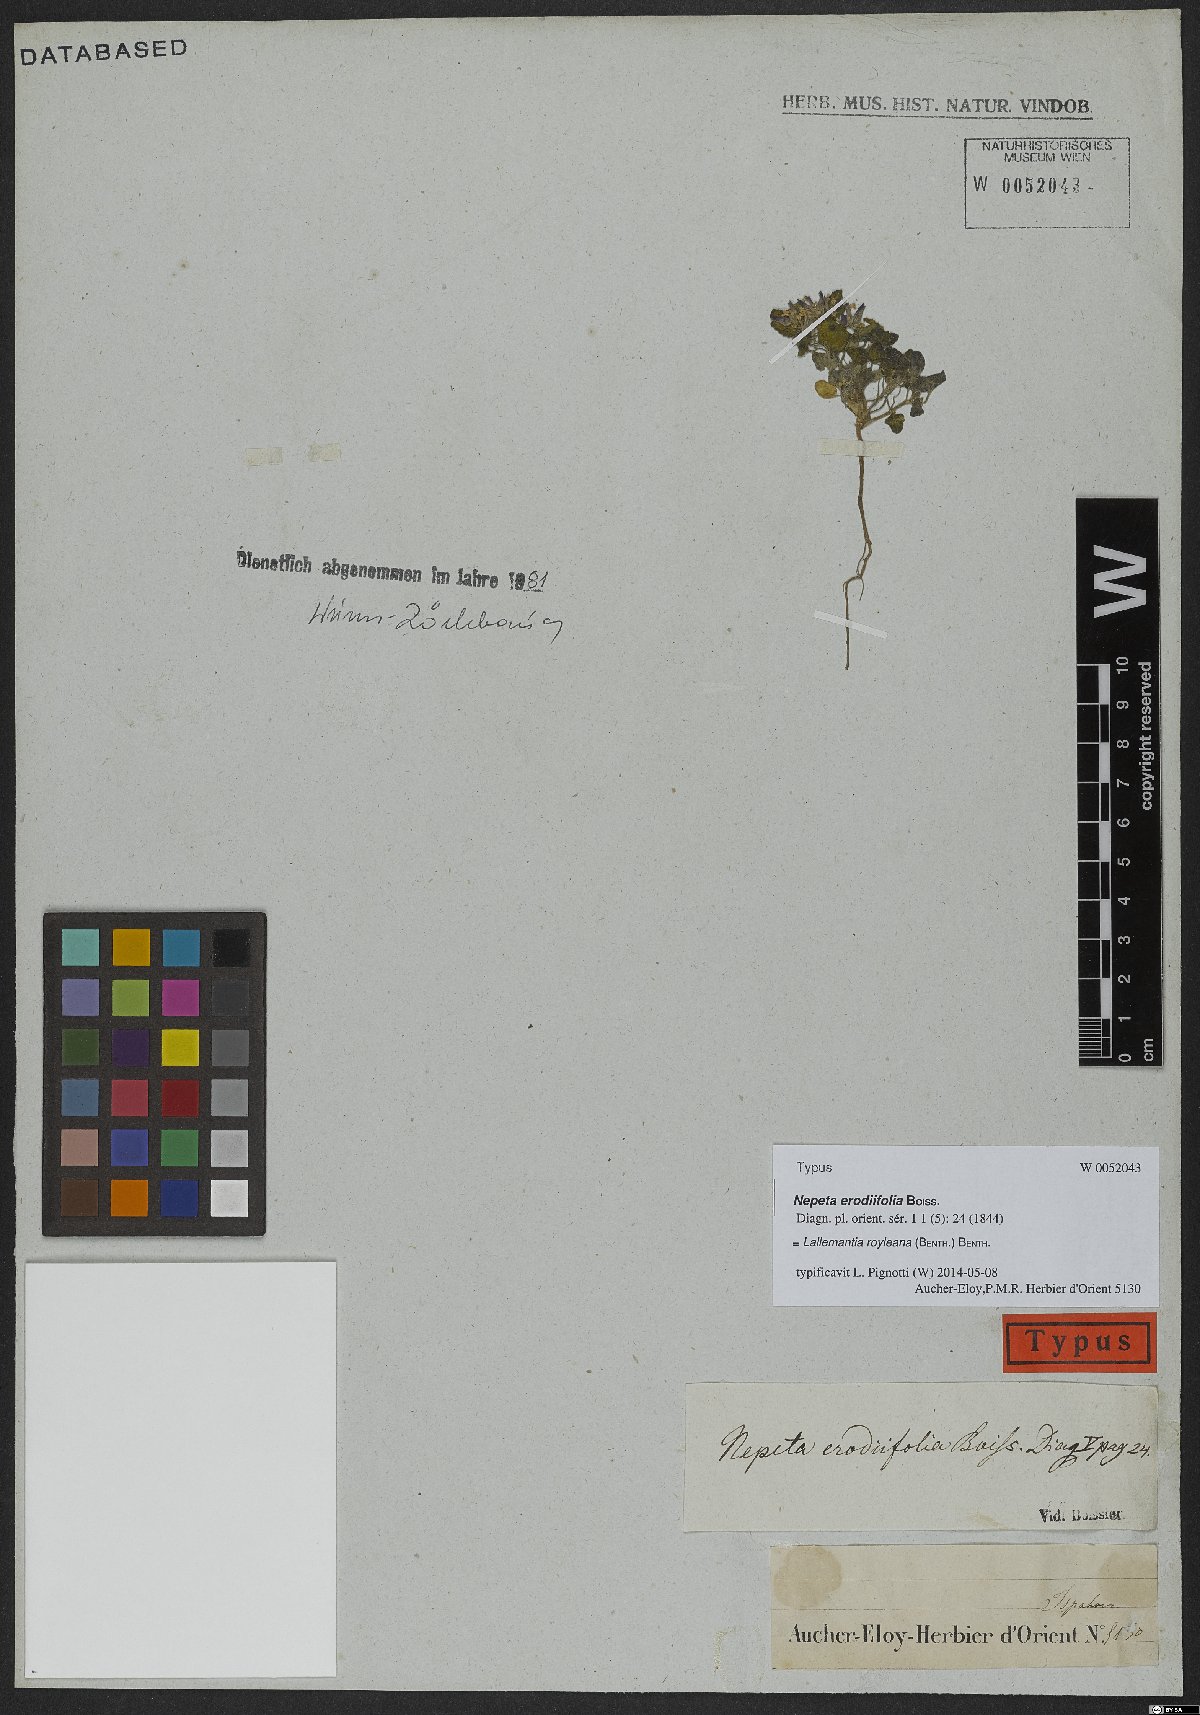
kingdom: Plantae
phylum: Tracheophyta
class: Magnoliopsida
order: Lamiales
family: Lamiaceae
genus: Lallemantia
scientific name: Lallemantia royleana
